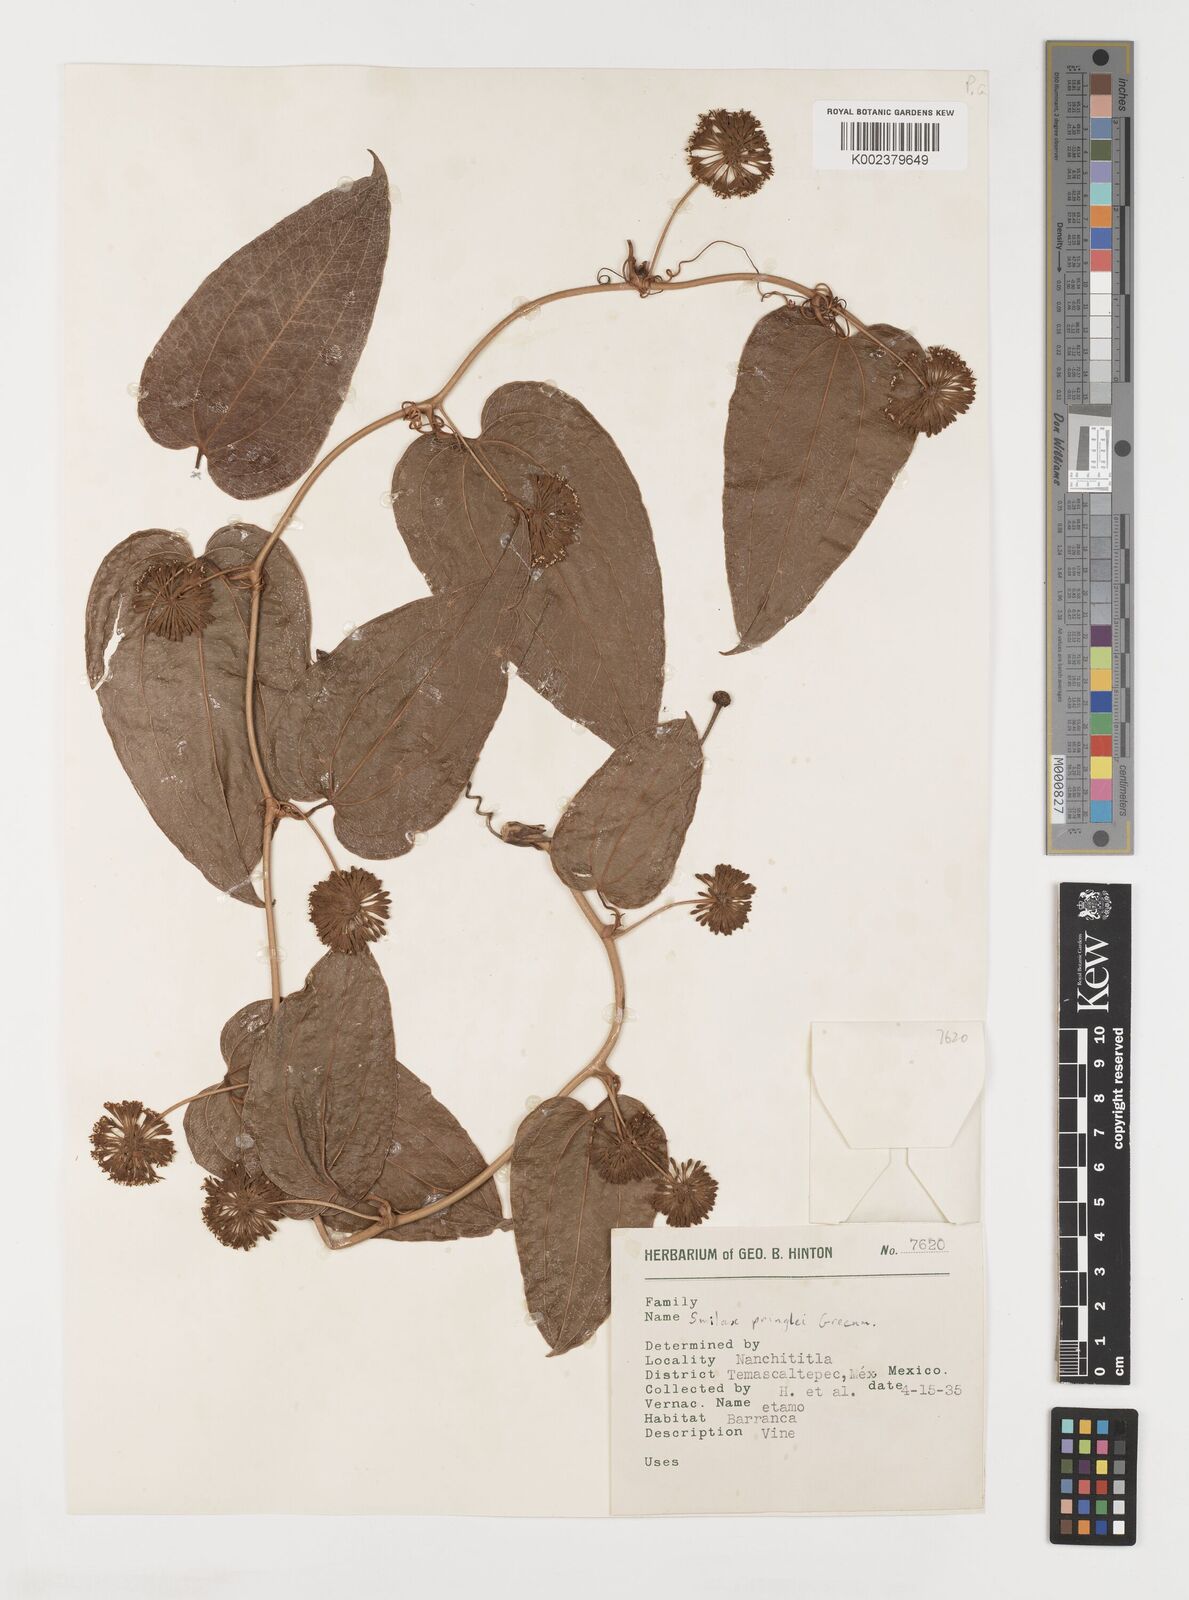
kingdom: Plantae
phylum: Tracheophyta
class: Liliopsida
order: Liliales
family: Smilacaceae
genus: Smilax
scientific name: Smilax mollis
